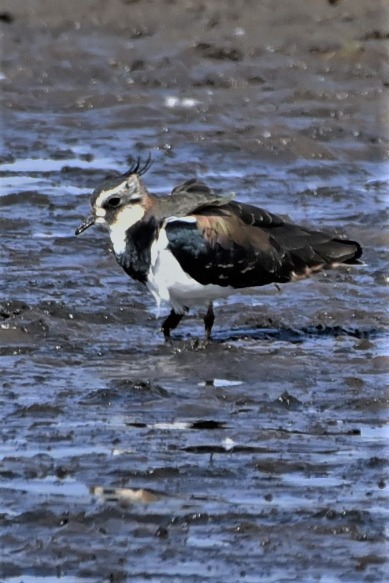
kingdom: Animalia
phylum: Chordata
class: Aves
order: Charadriiformes
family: Charadriidae
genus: Vanellus
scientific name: Vanellus vanellus
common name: Vibe
